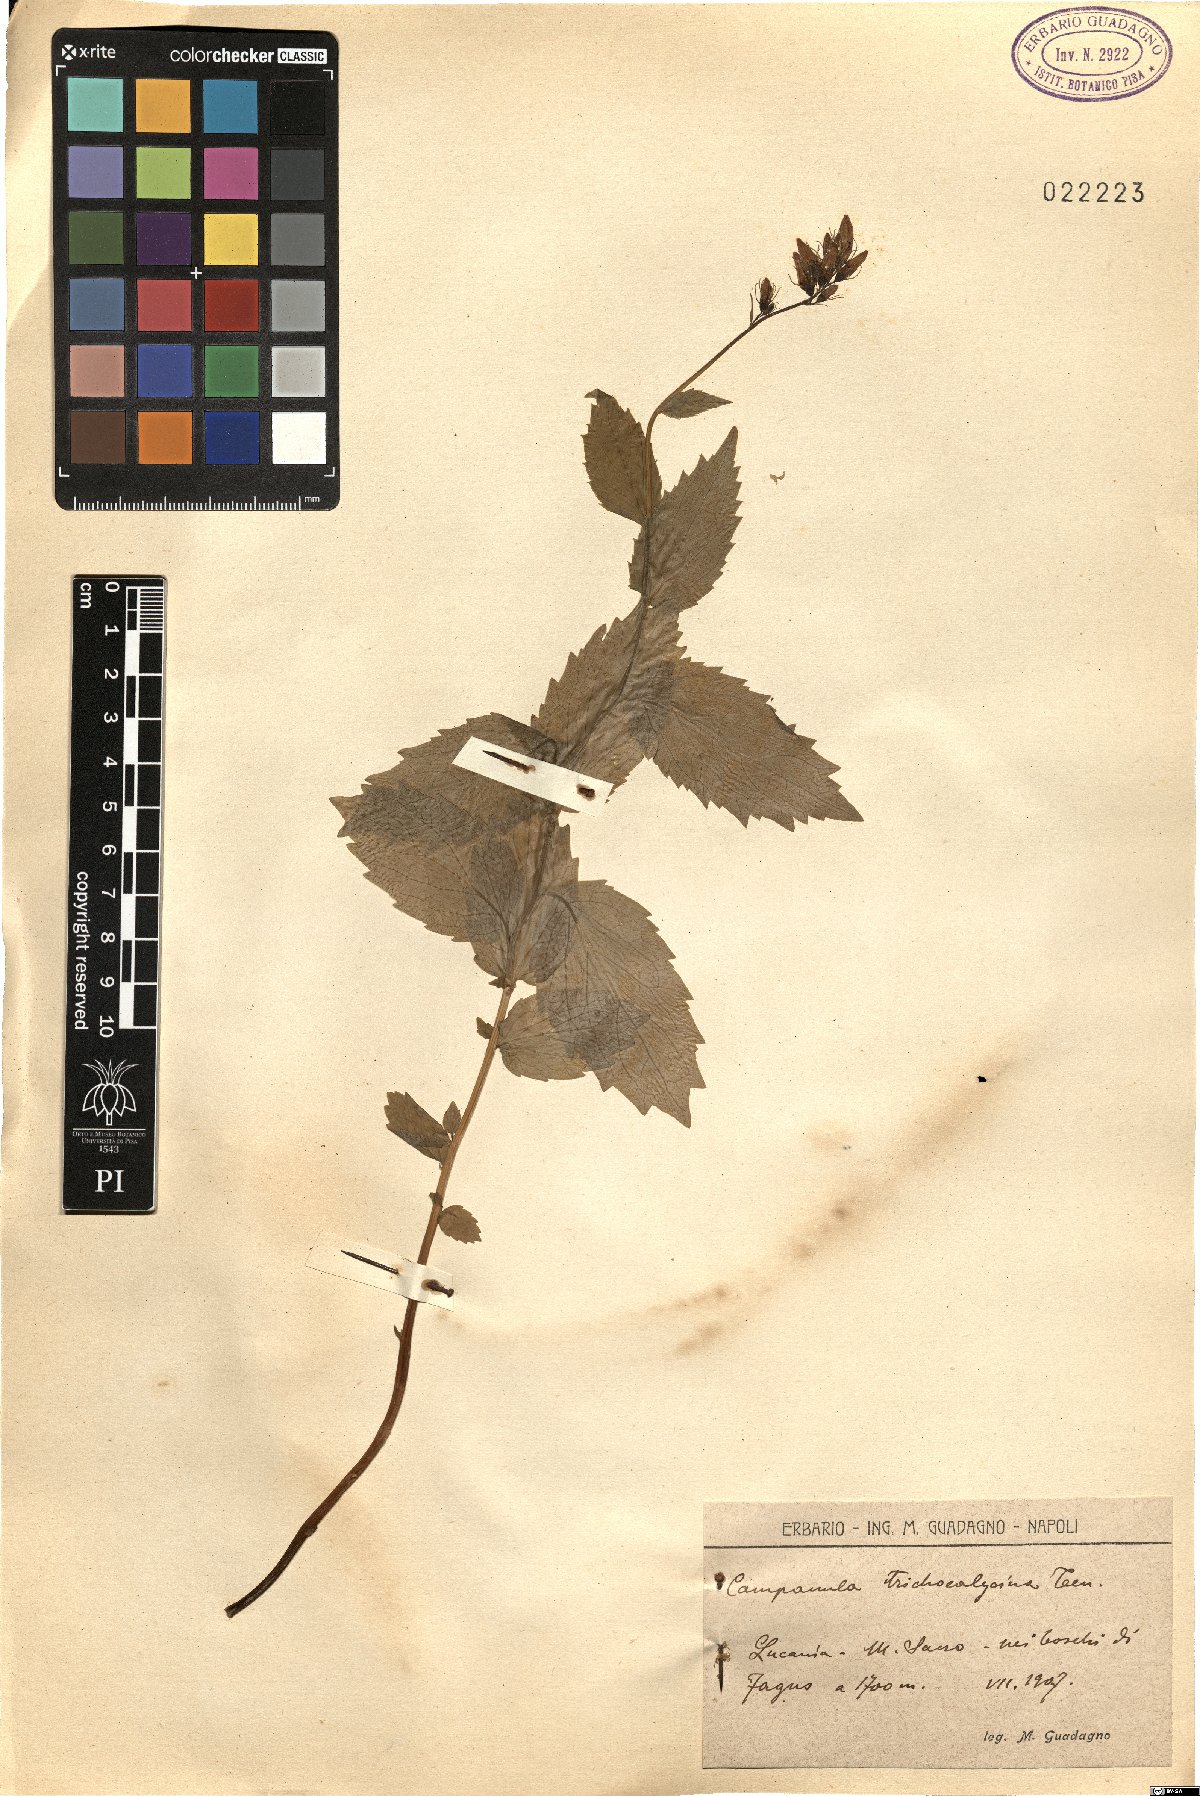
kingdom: Plantae
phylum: Tracheophyta
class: Magnoliopsida
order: Asterales
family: Campanulaceae
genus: Campanula
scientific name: Campanula trichocalycina
